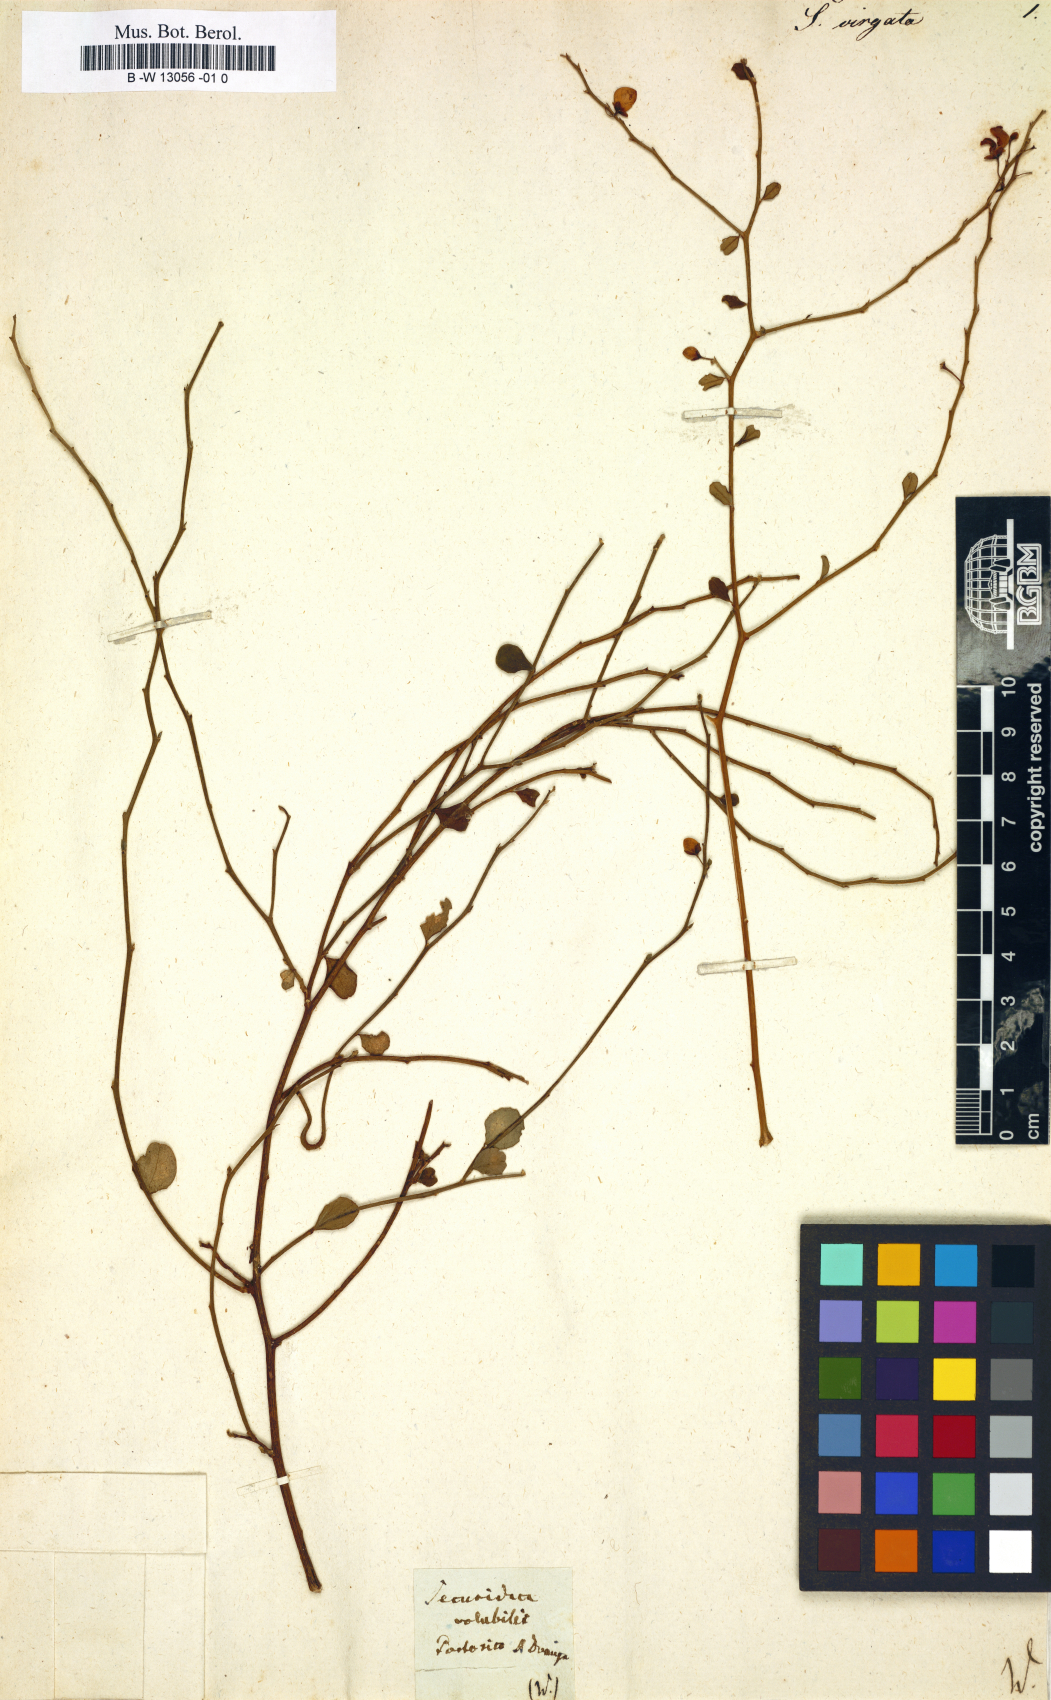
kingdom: Plantae
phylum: Tracheophyta
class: Magnoliopsida
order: Fabales
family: Polygalaceae
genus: Securidaca
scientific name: Securidaca virgata
